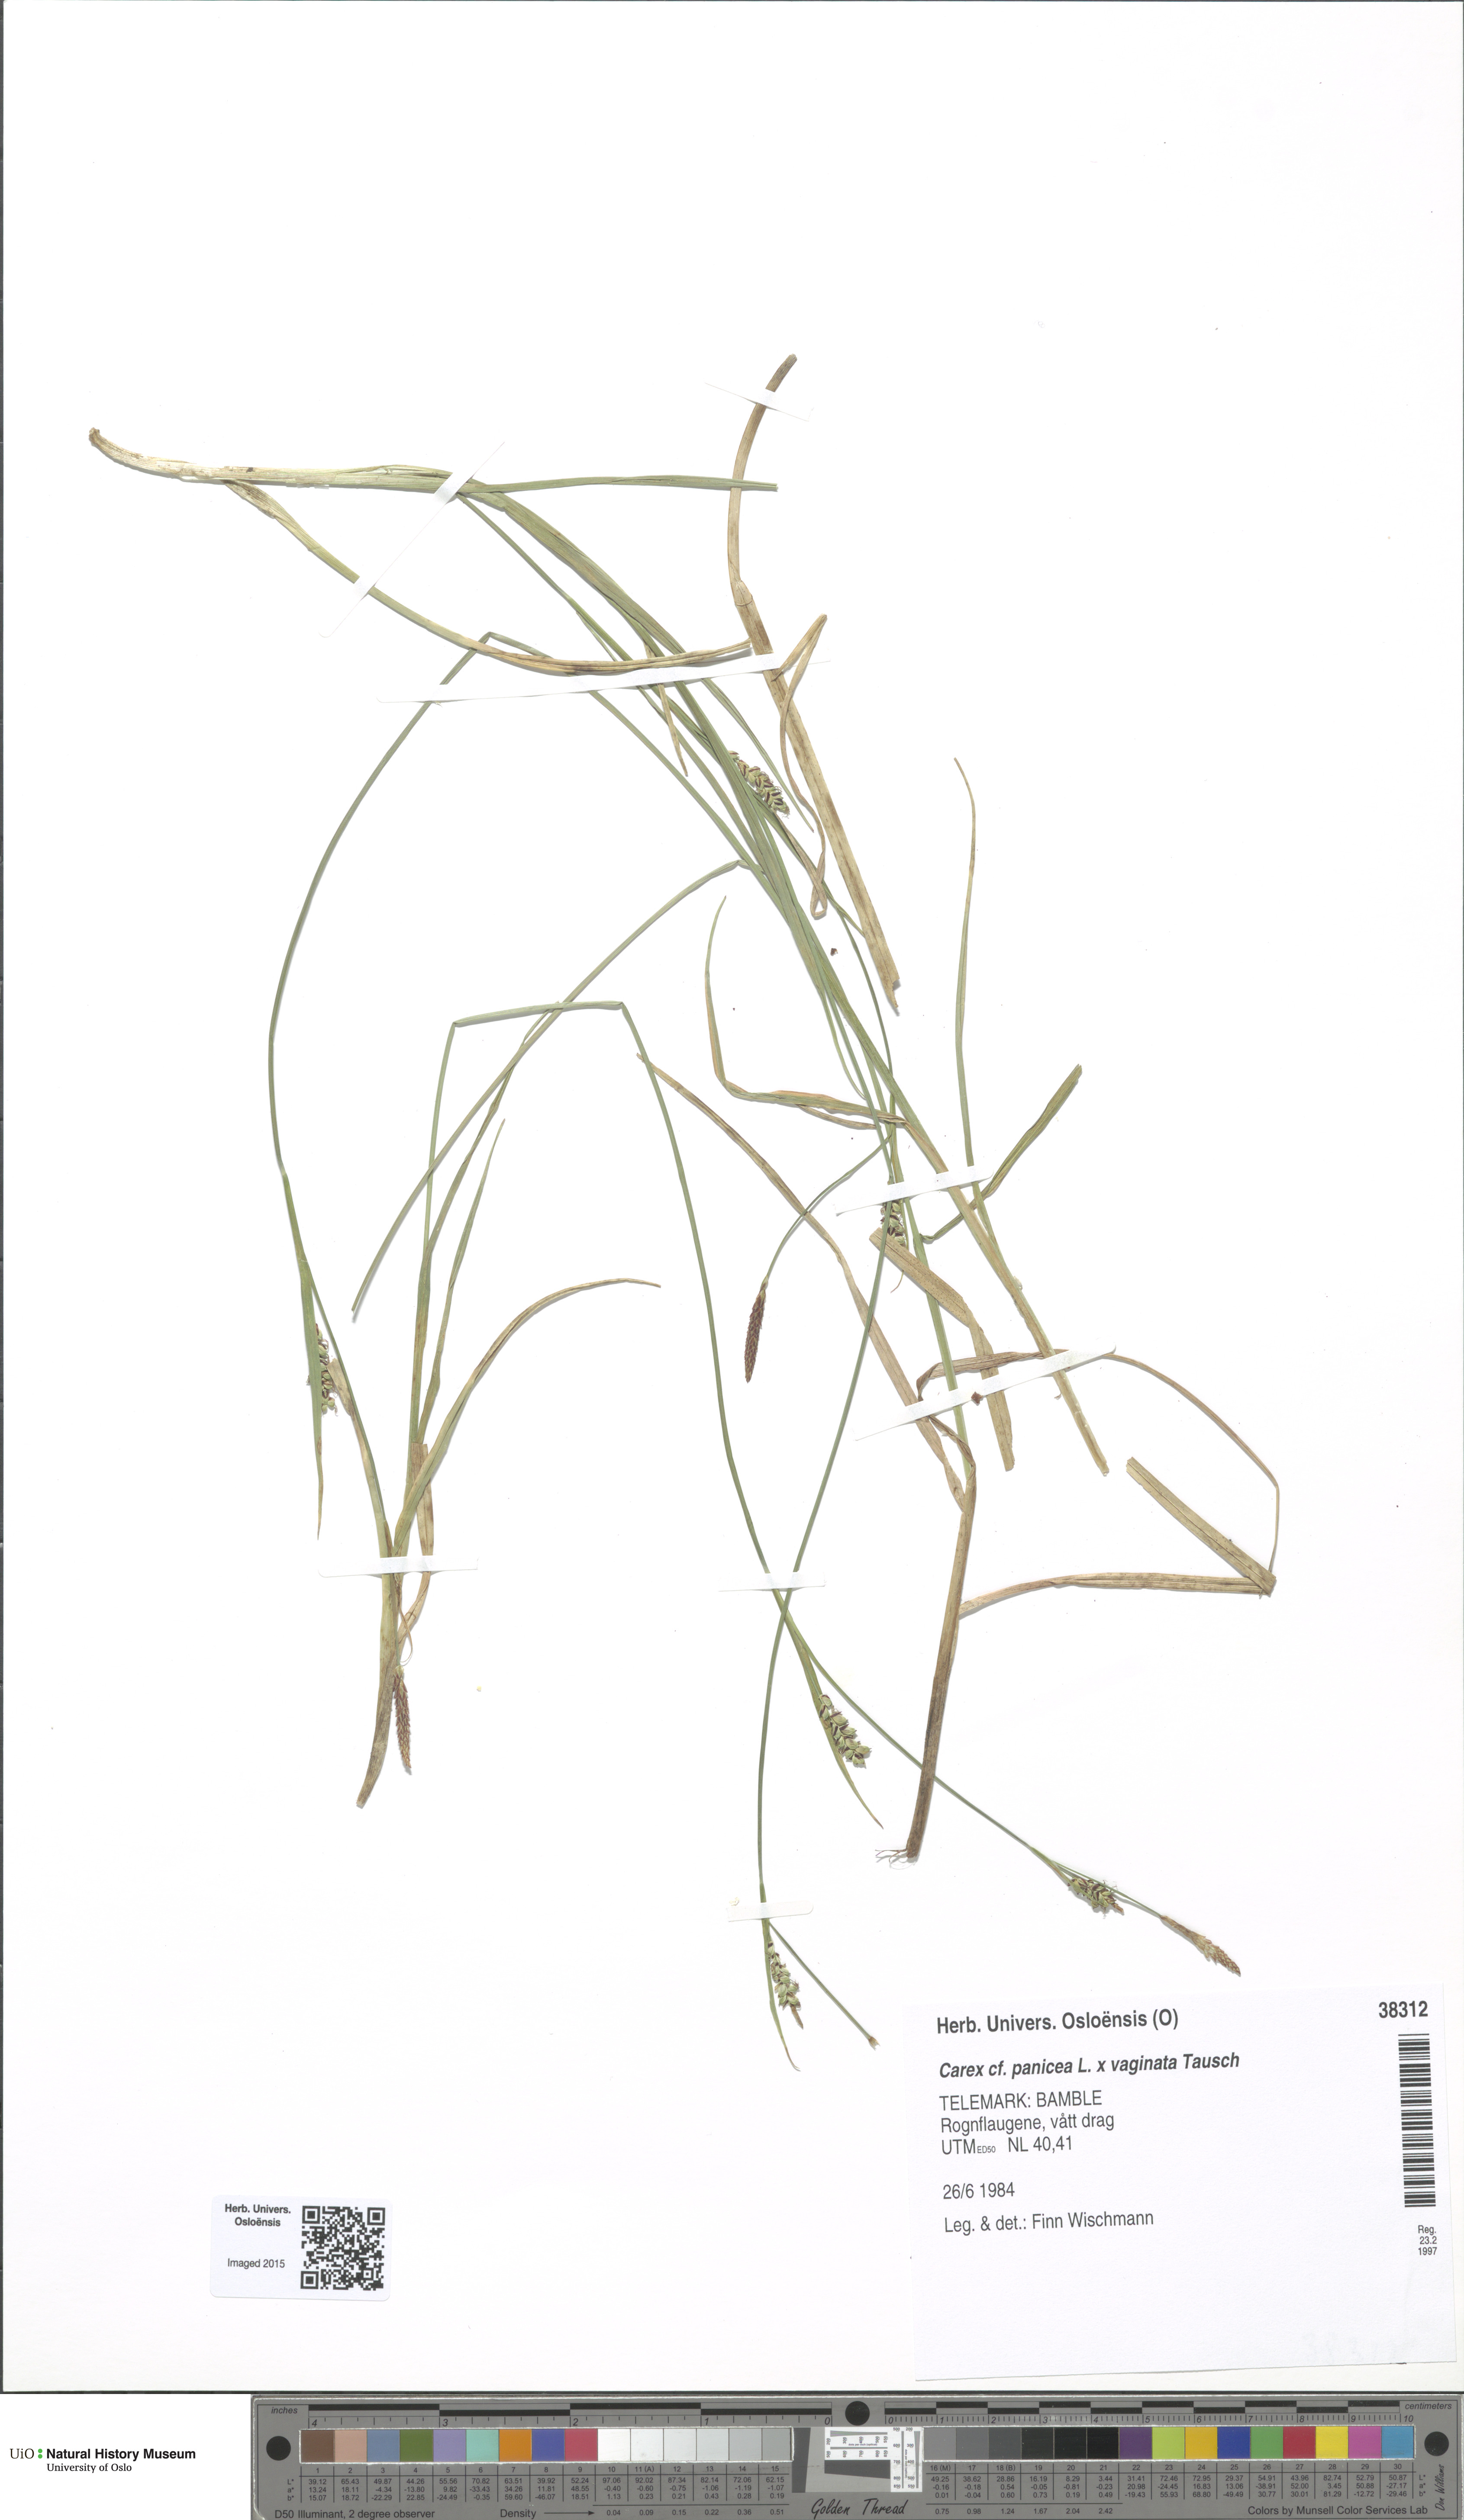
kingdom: Plantae
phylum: Tracheophyta
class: Liliopsida
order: Poales
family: Cyperaceae
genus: Carex
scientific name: Carex
